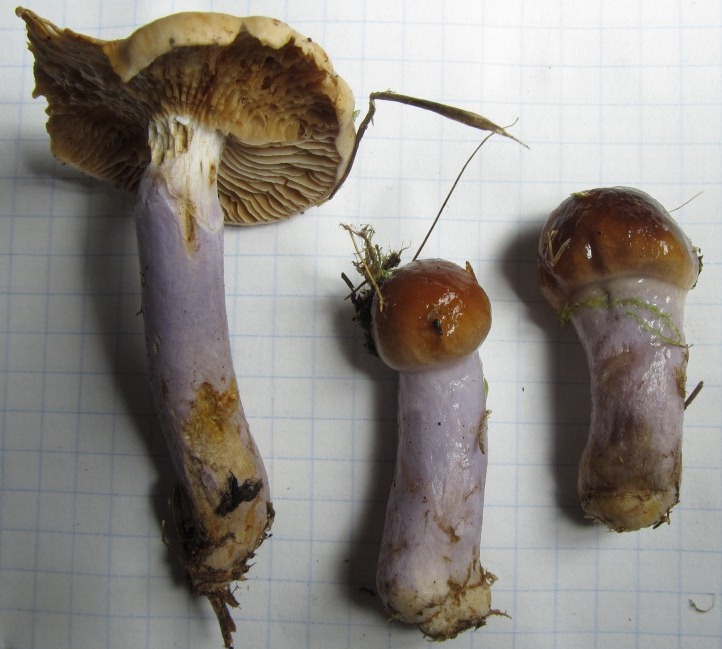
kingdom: Fungi
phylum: Basidiomycota
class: Agaricomycetes
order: Agaricales
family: Cortinariaceae
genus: Cortinarius
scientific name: Cortinarius collinitus
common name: spættet slørhat
